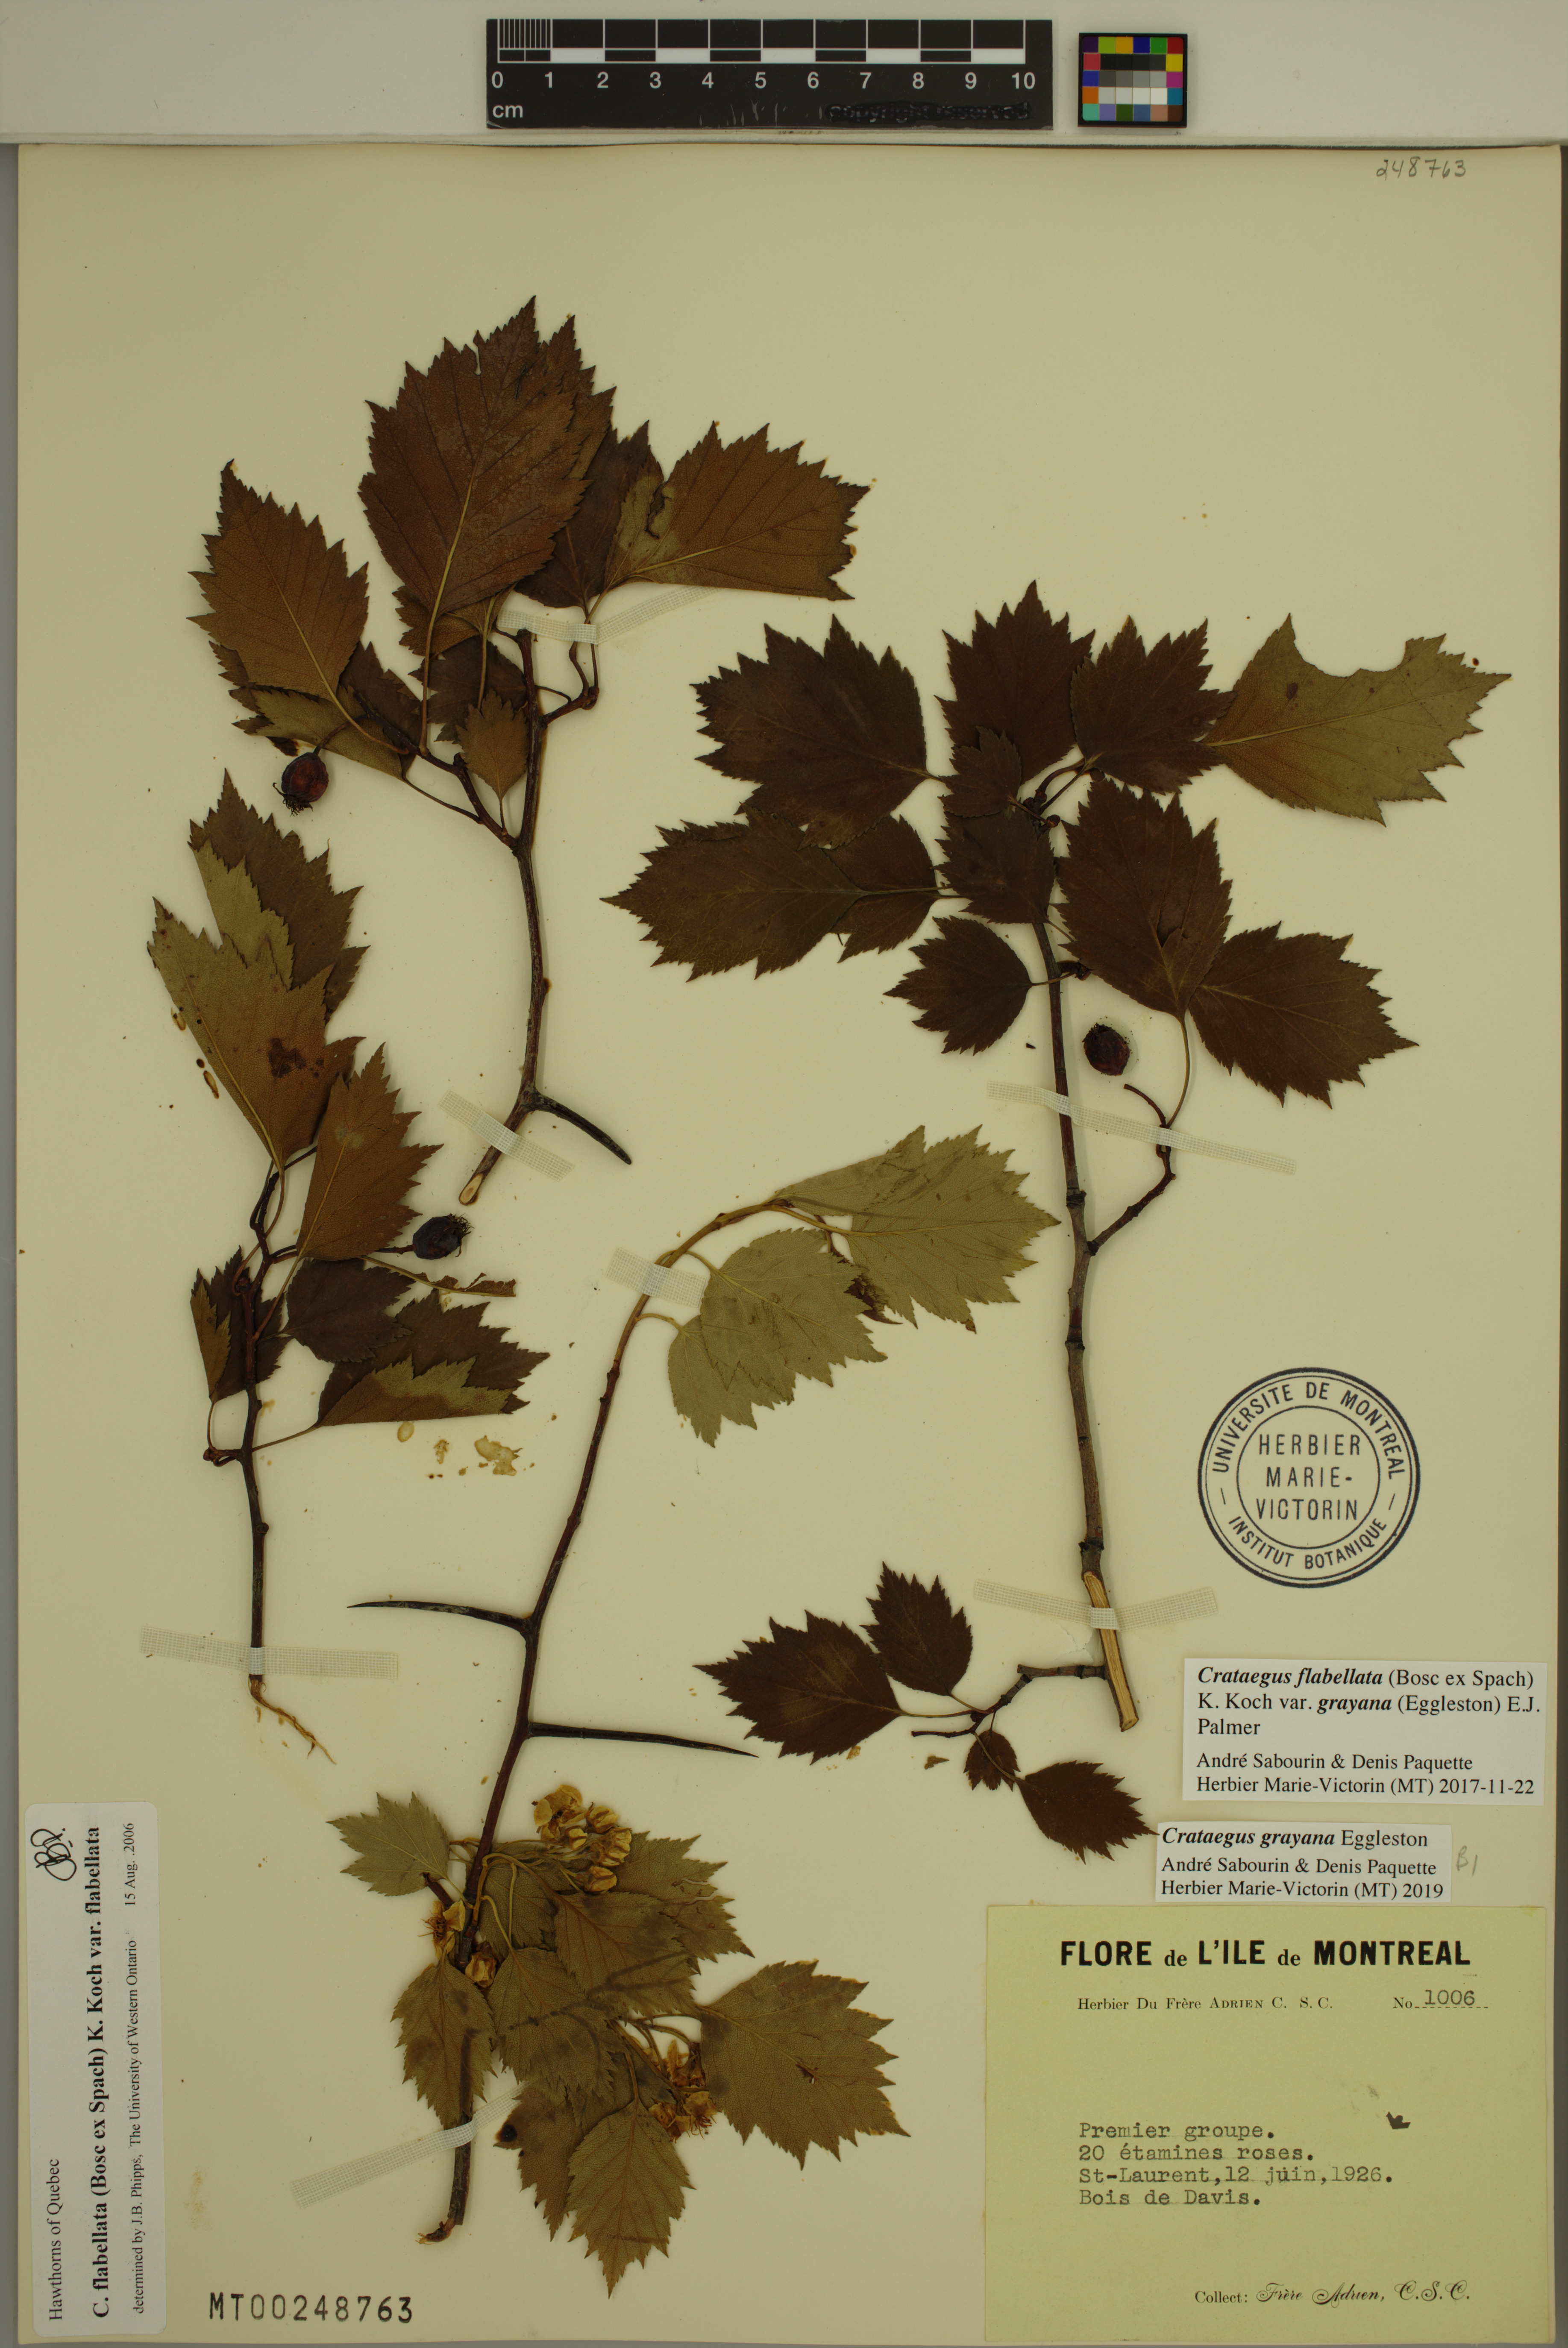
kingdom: Plantae
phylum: Tracheophyta
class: Magnoliopsida
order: Rosales
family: Rosaceae
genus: Crataegus
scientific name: Crataegus schuettei
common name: Schuette's hawthorn
